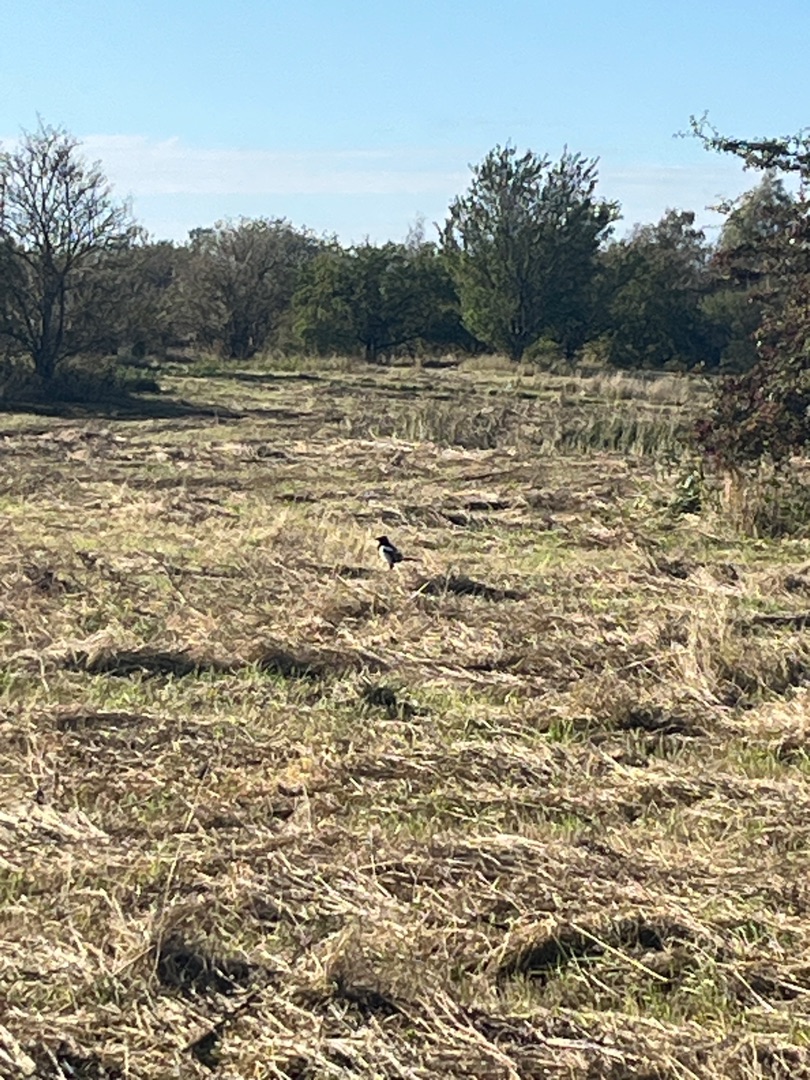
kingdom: Animalia
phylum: Chordata
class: Aves
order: Passeriformes
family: Corvidae
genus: Pica
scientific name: Pica pica
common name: Husskade
